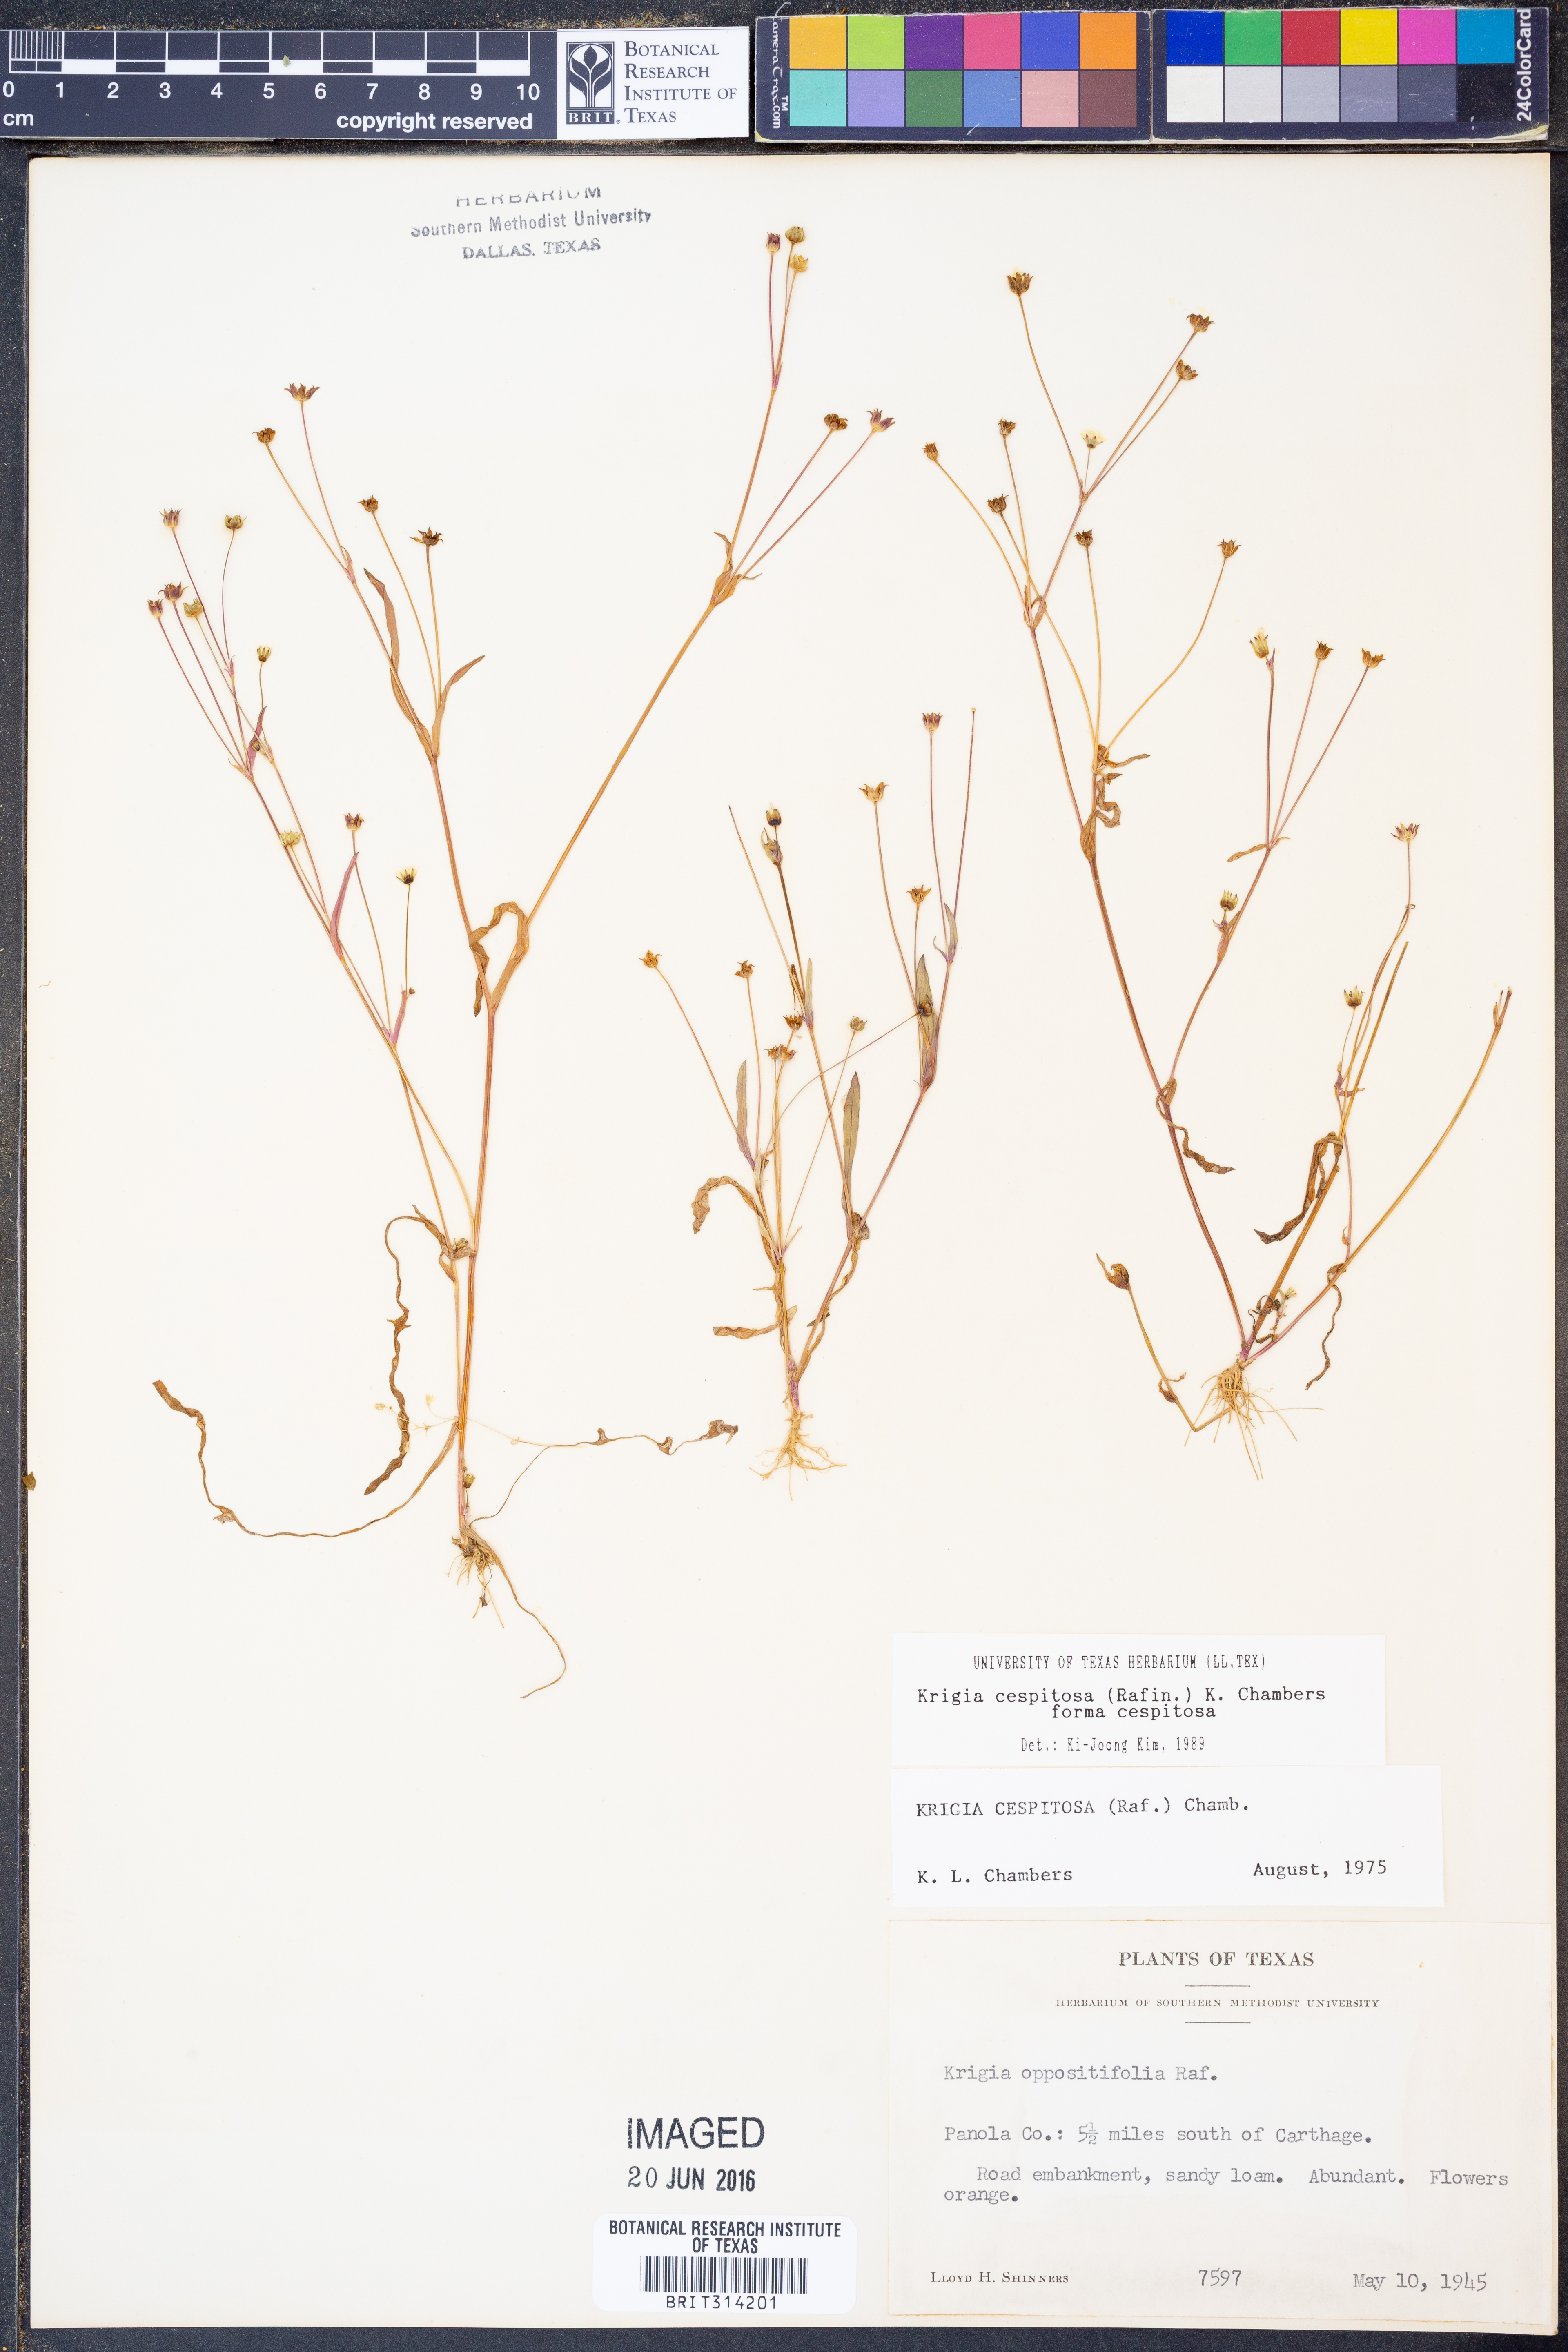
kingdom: Plantae
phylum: Tracheophyta
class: Magnoliopsida
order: Asterales
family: Asteraceae
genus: Krigia
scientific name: Krigia cespitosa
